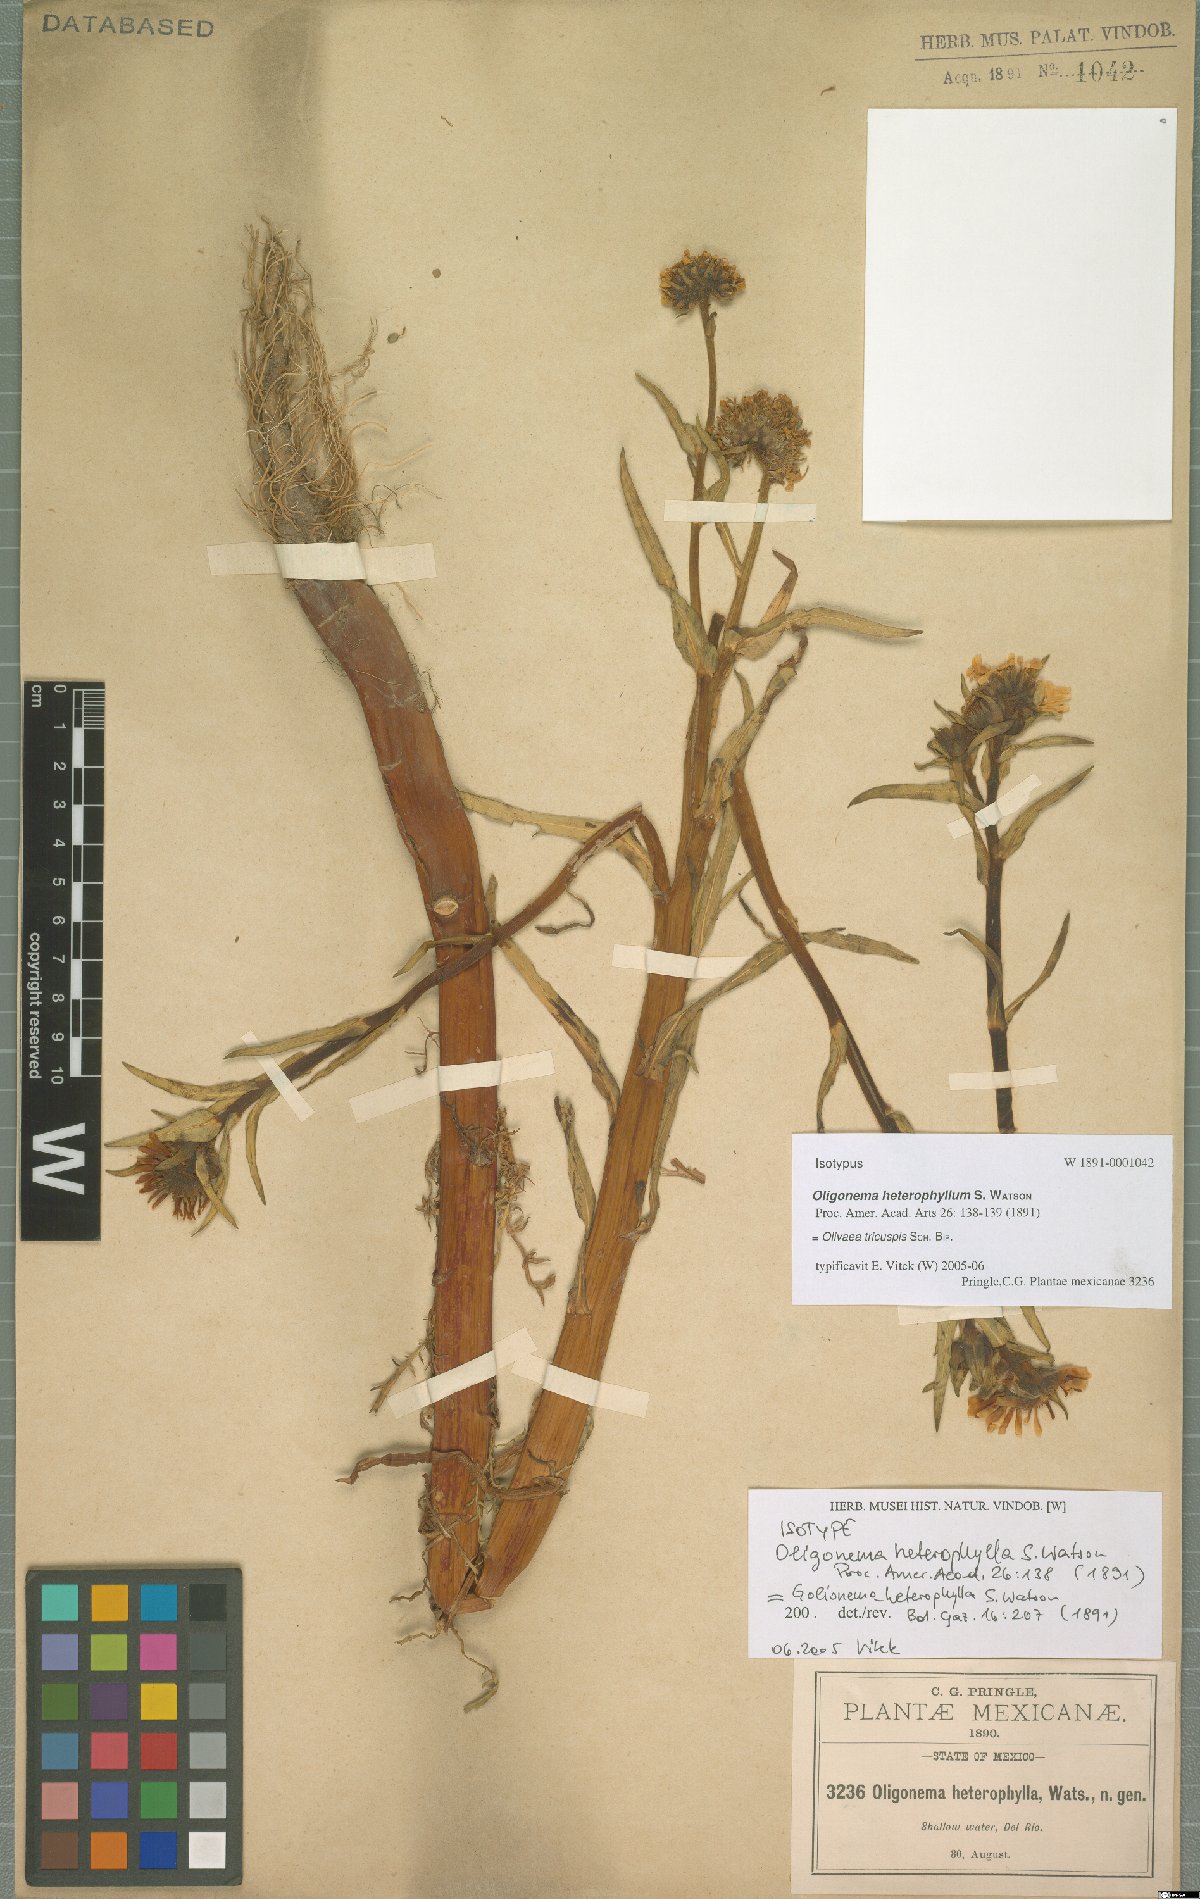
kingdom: Plantae
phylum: Tracheophyta
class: Magnoliopsida
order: Asterales
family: Asteraceae
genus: Grindelia
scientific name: Grindelia tricuspis
